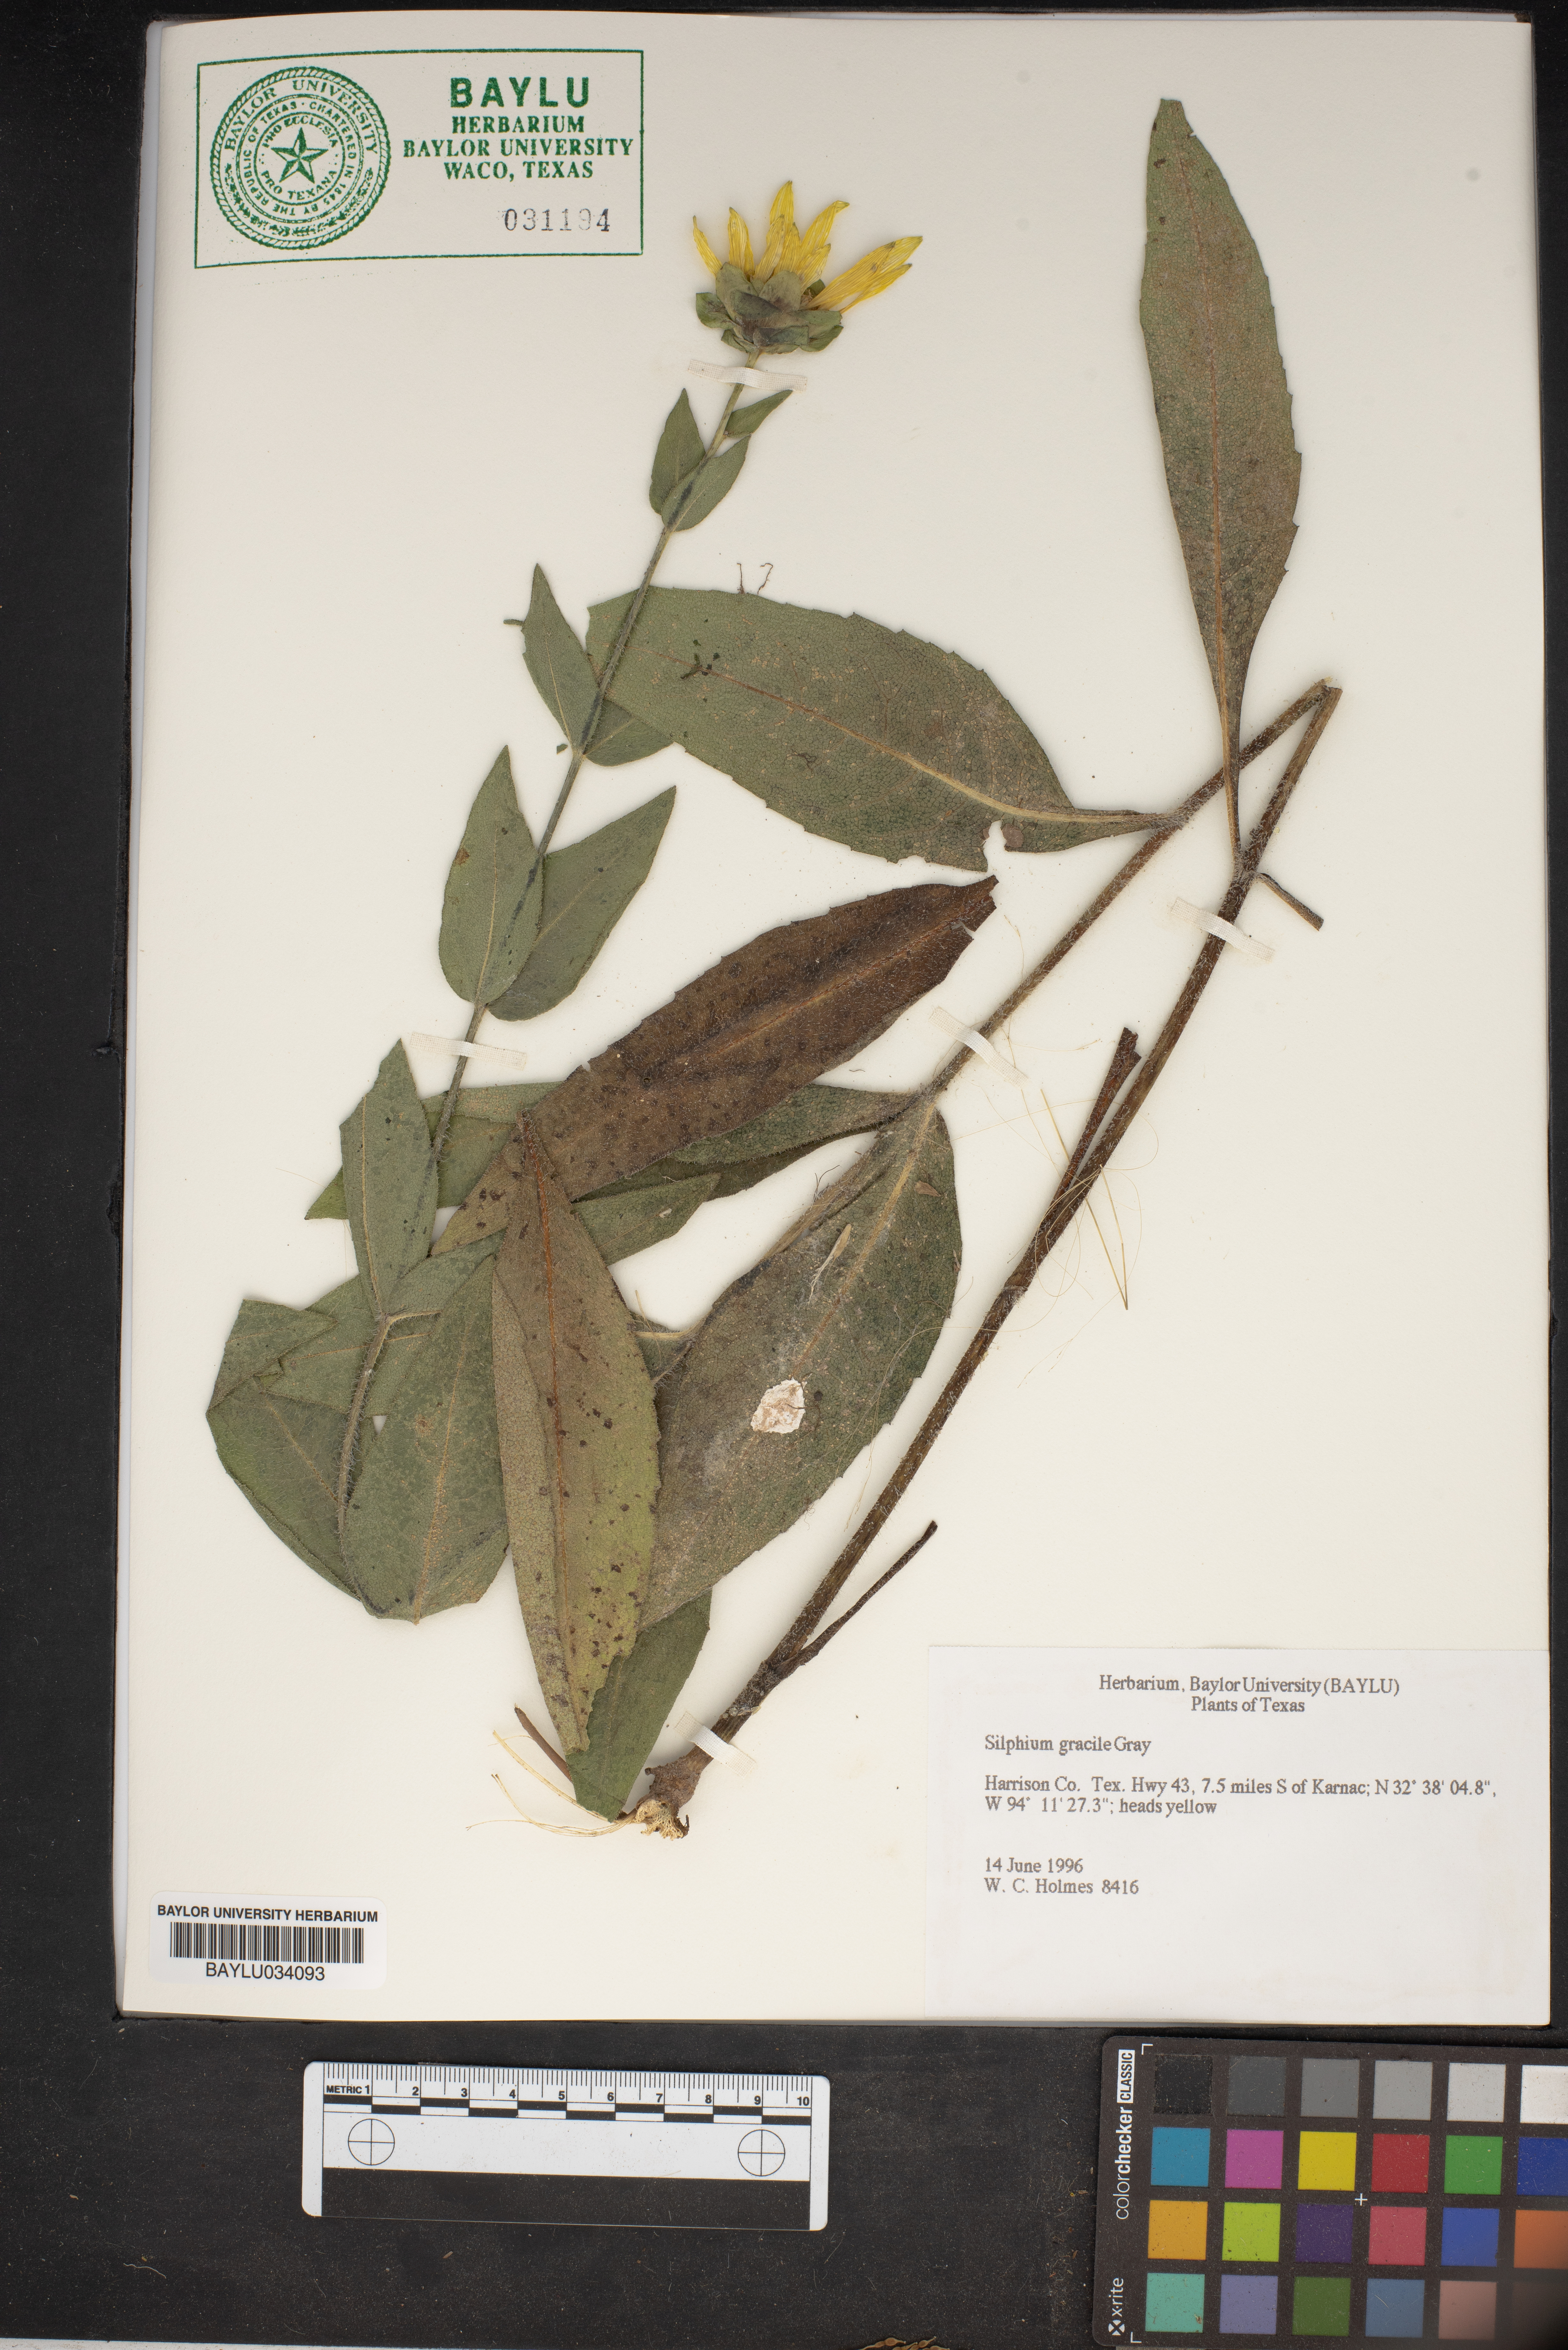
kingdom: Plantae
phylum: Tracheophyta
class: Magnoliopsida
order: Asterales
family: Asteraceae
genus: Silphium
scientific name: Silphium radula
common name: Roughleaf rosinweed
